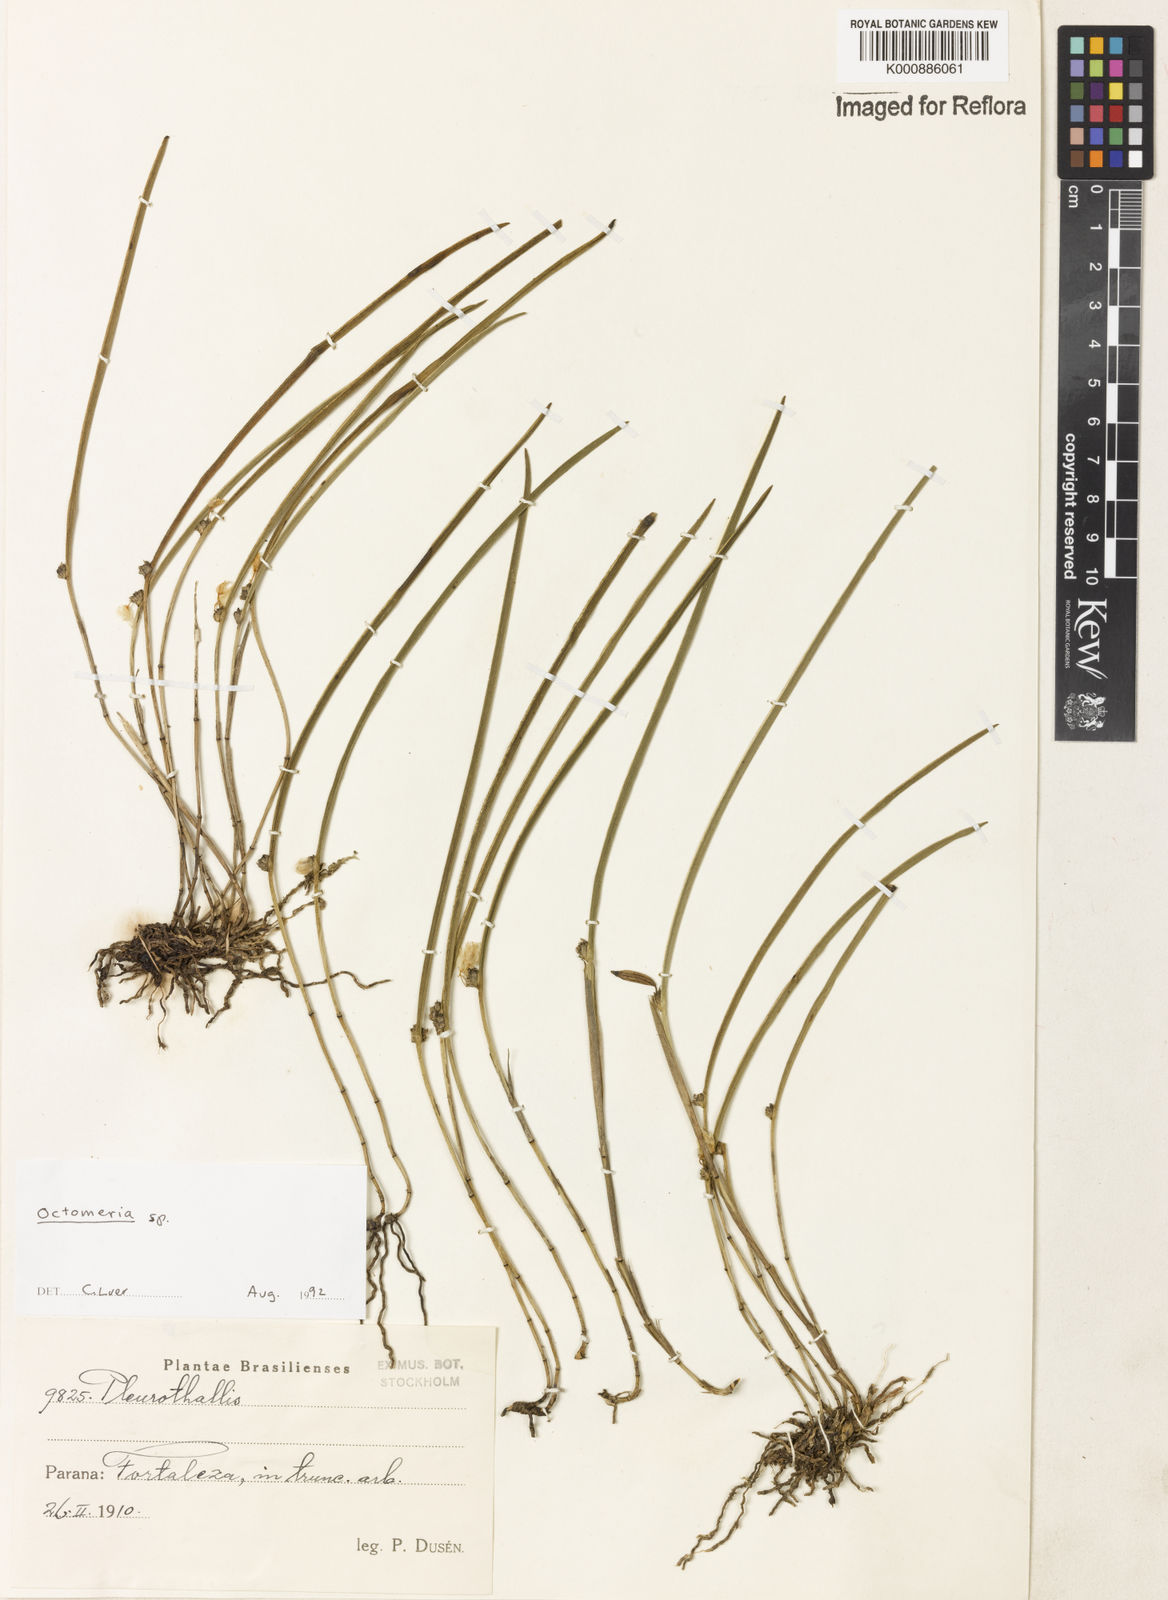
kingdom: Plantae
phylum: Tracheophyta
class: Liliopsida
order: Asparagales
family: Orchidaceae
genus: Octomeria
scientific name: Octomeria
